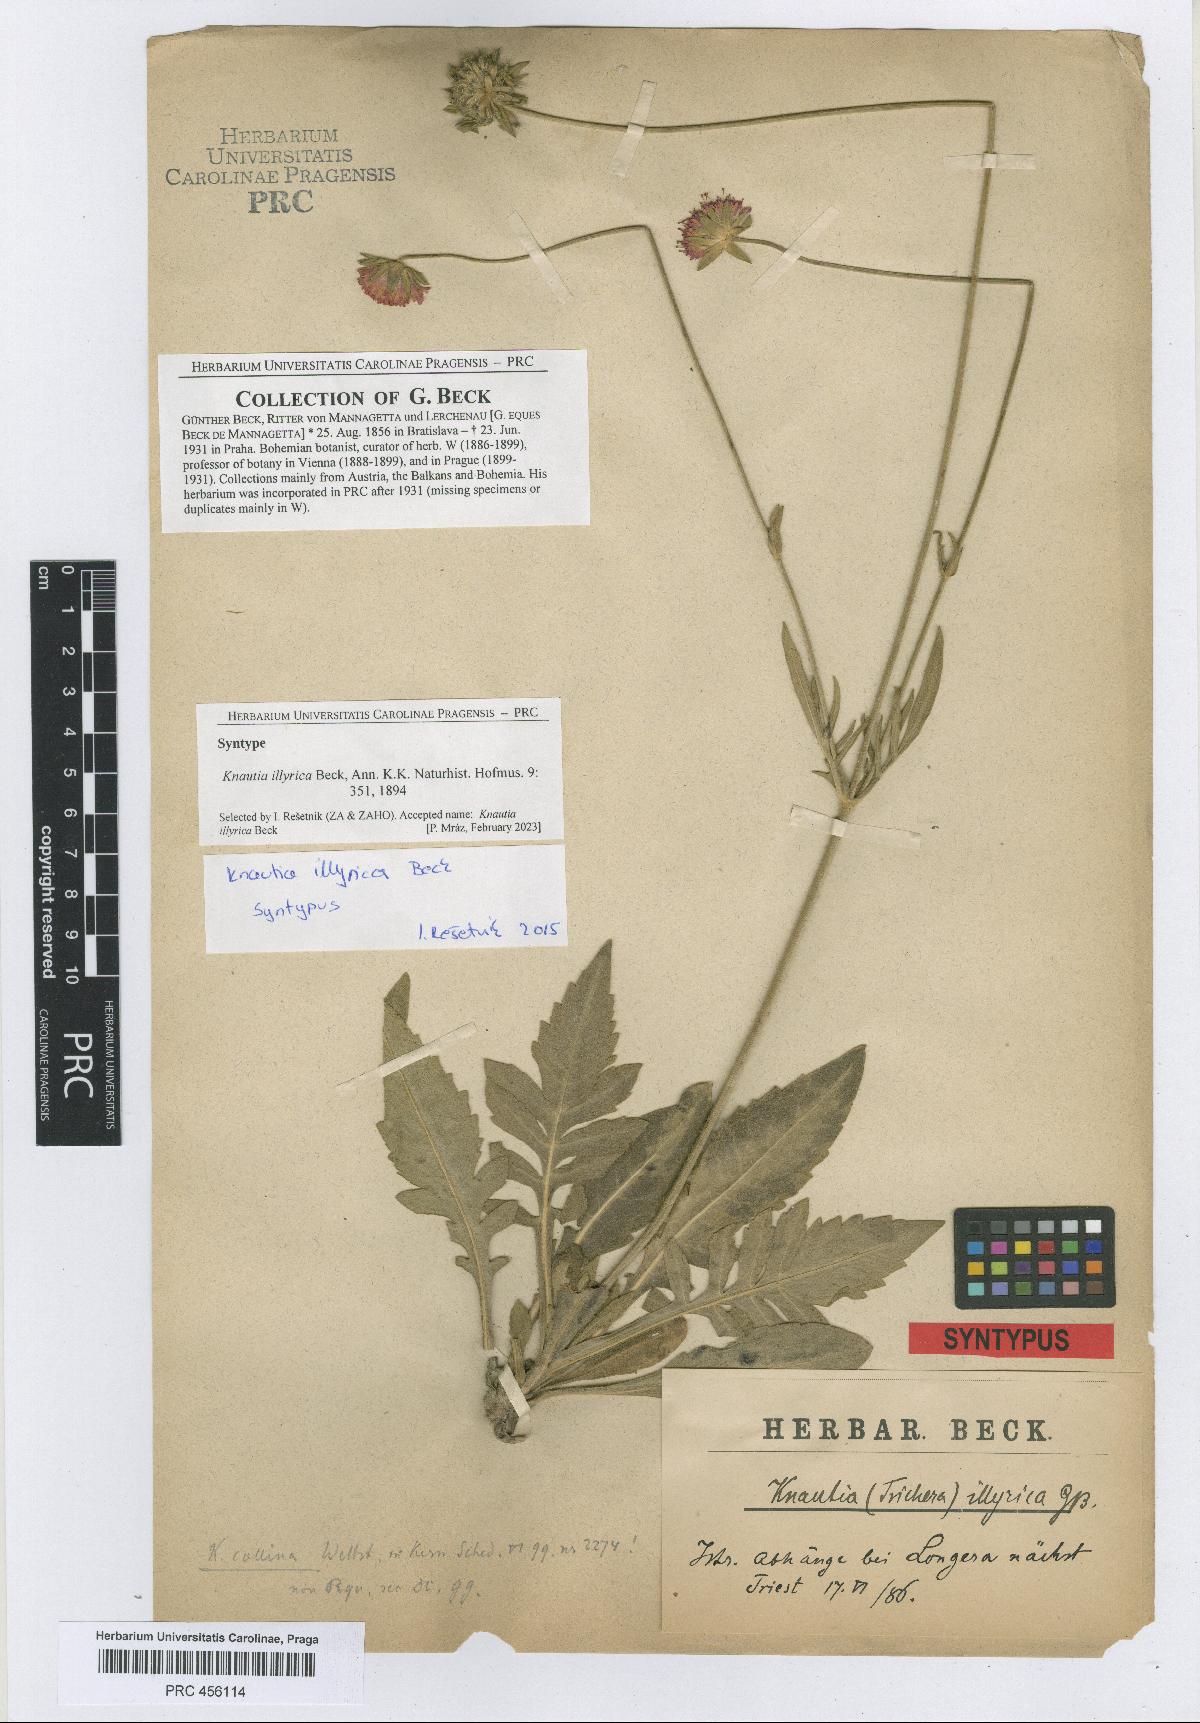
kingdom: Plantae
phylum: Tracheophyta
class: Magnoliopsida
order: Dipsacales
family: Caprifoliaceae
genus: Knautia
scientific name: Knautia illyrica
